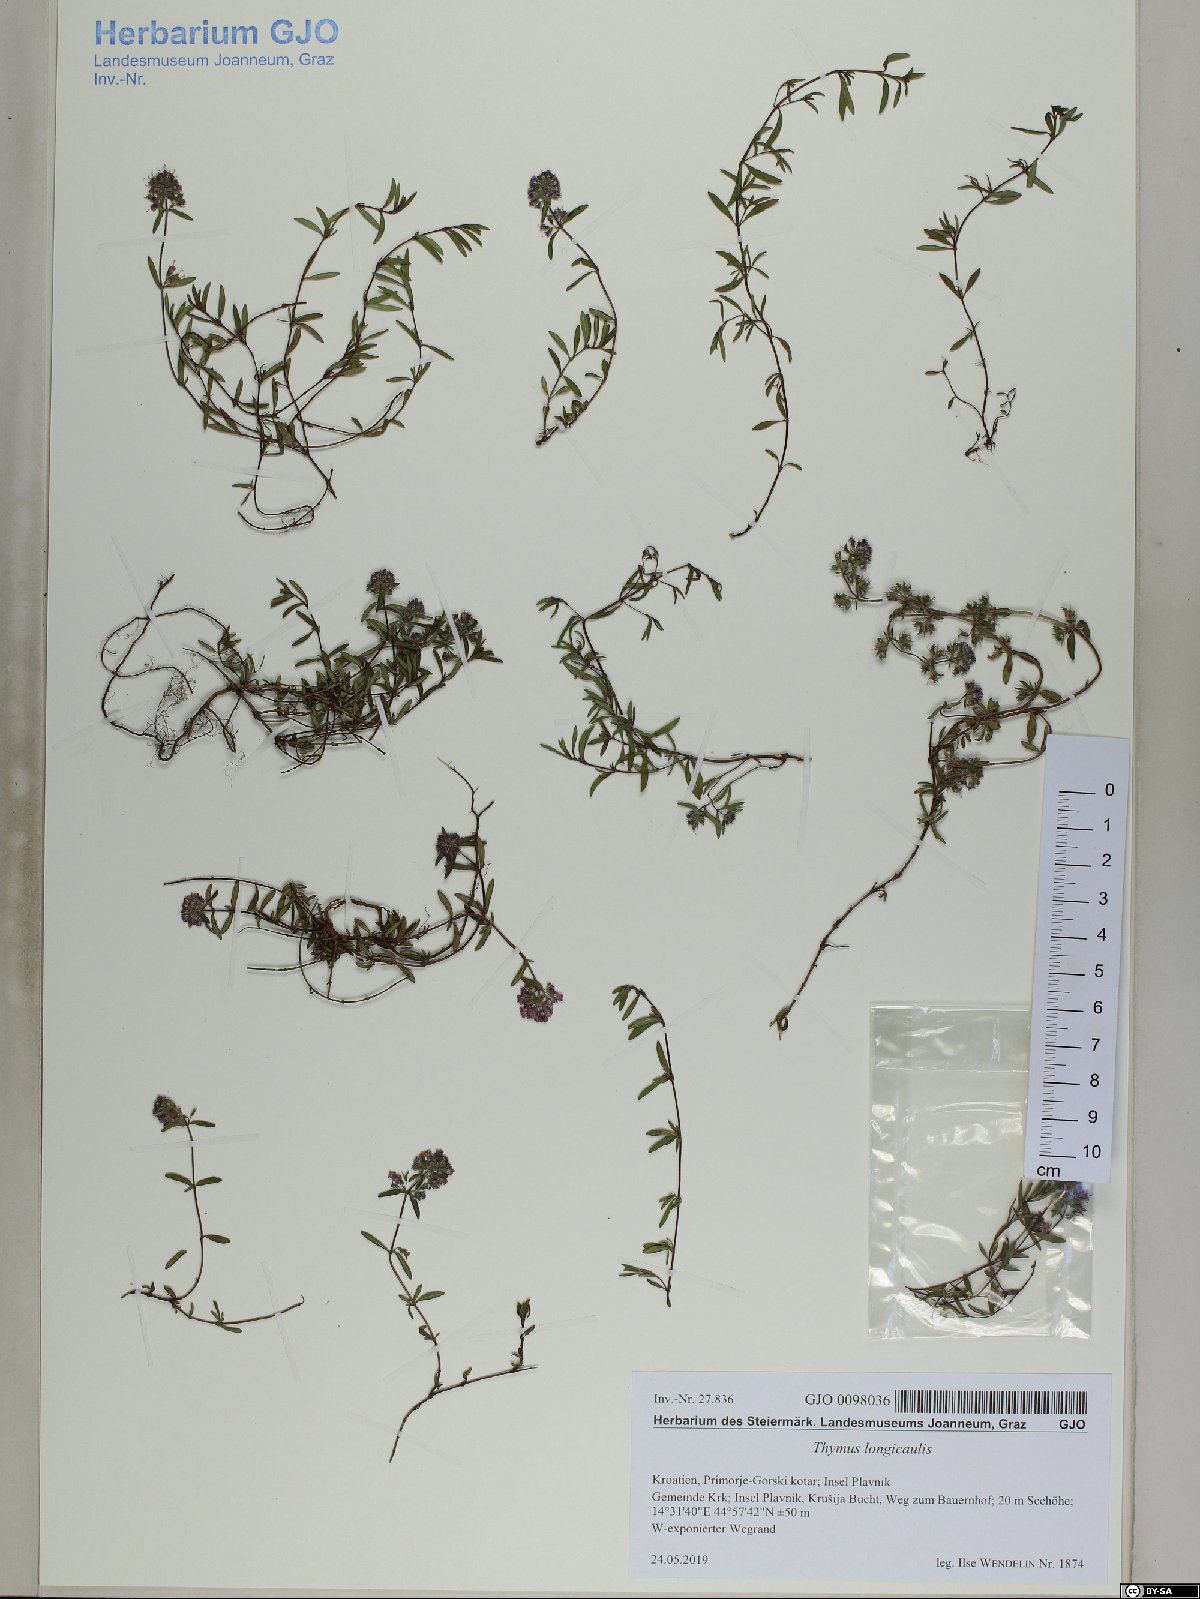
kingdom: Plantae
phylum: Tracheophyta
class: Magnoliopsida
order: Lamiales
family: Lamiaceae
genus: Thymus
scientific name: Thymus longicaulis
